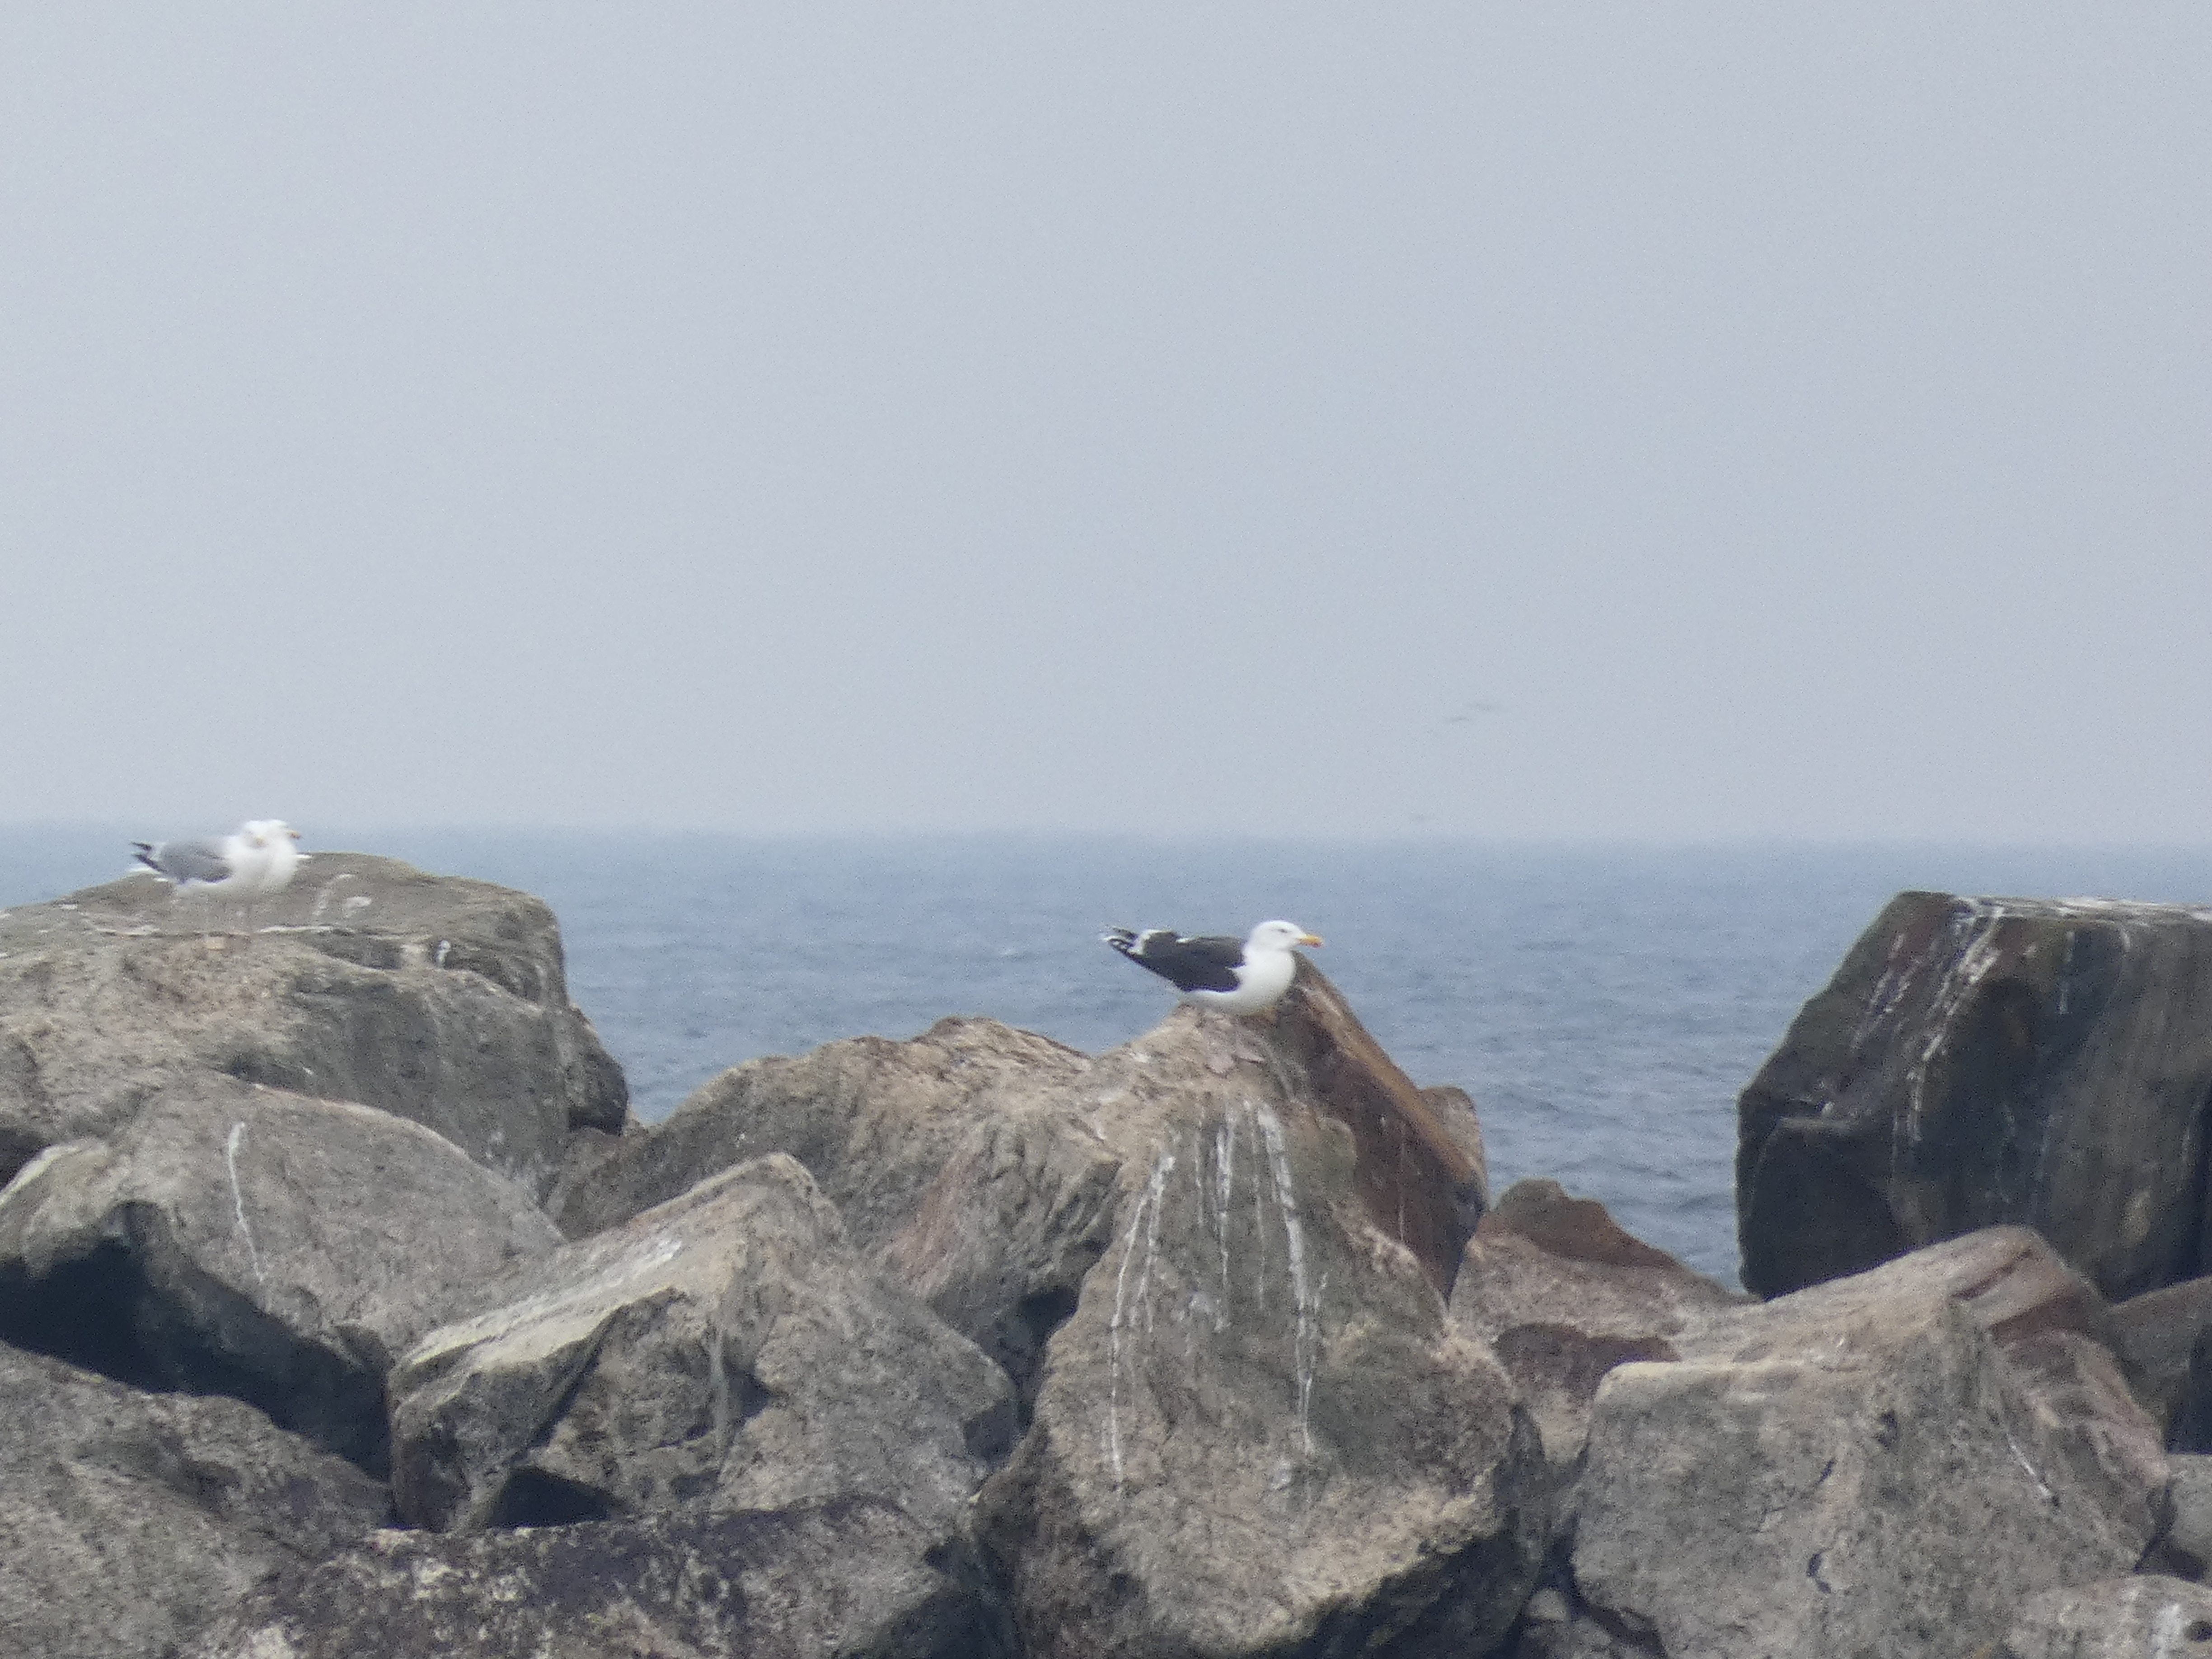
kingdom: Animalia
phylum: Chordata
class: Aves
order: Charadriiformes
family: Laridae
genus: Larus
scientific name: Larus marinus
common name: Svartbag
